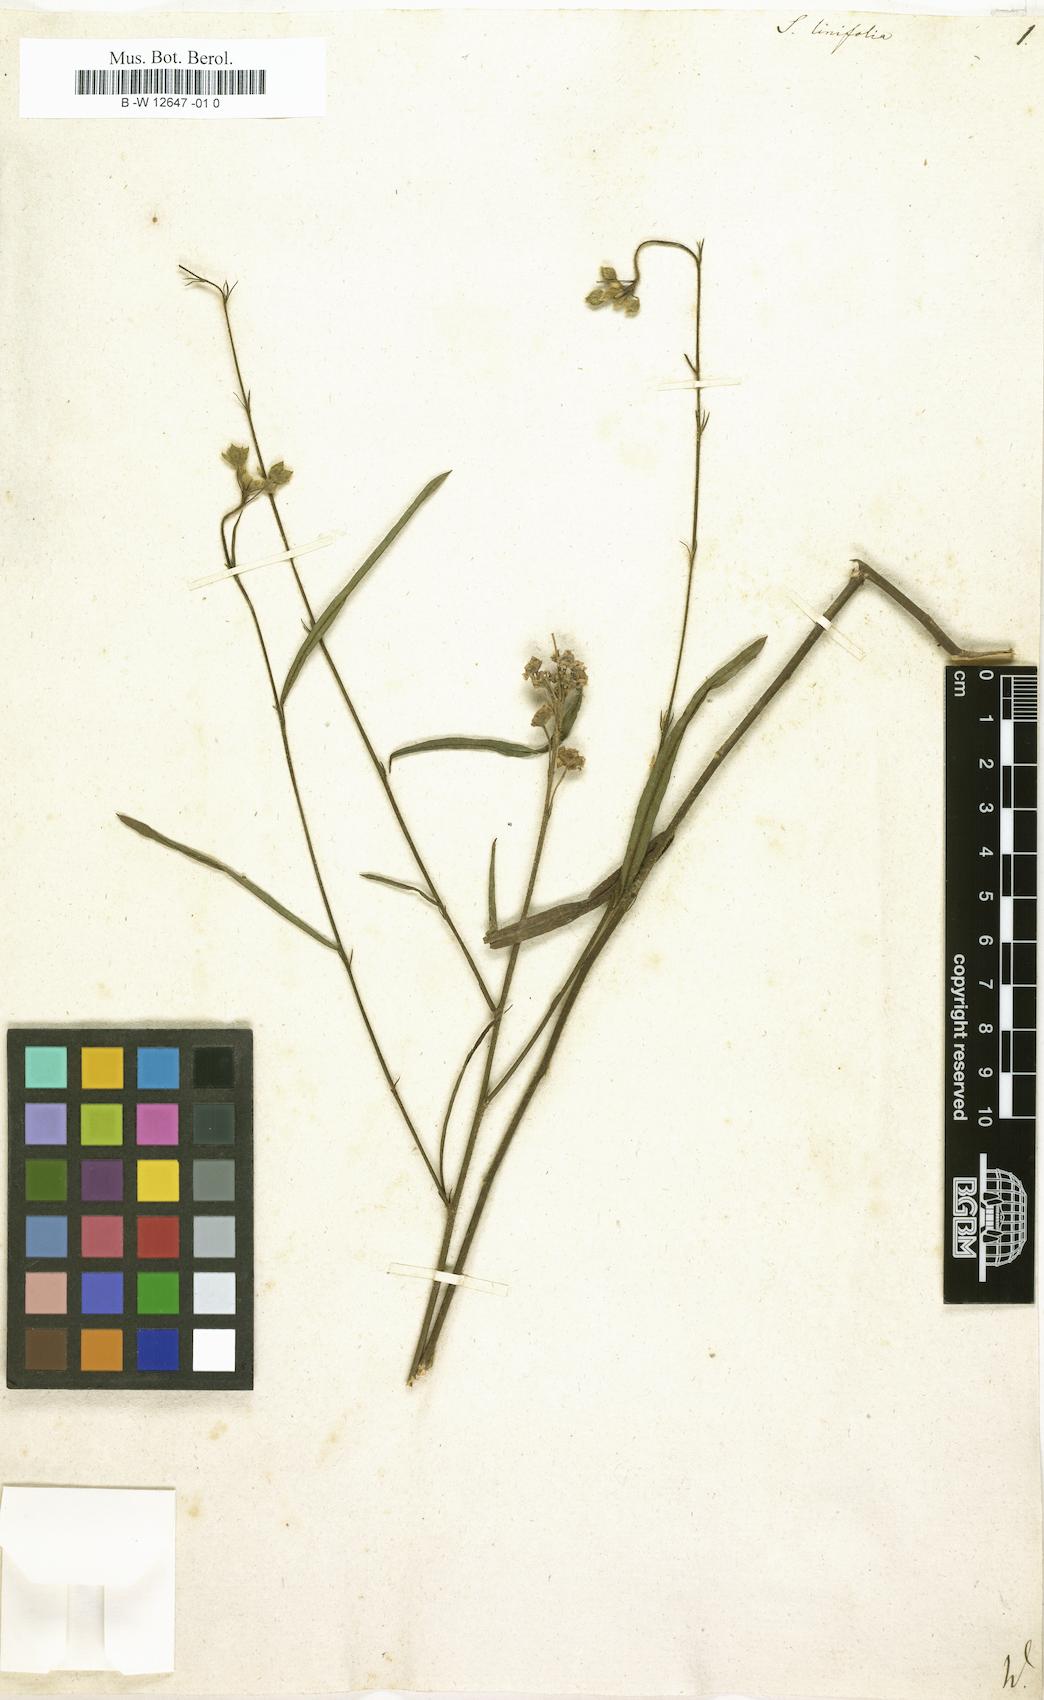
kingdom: Plantae
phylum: Tracheophyta
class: Magnoliopsida
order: Malvales
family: Malvaceae
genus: Sida
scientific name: Sida linifolia
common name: Flaxleaf fanpetals
